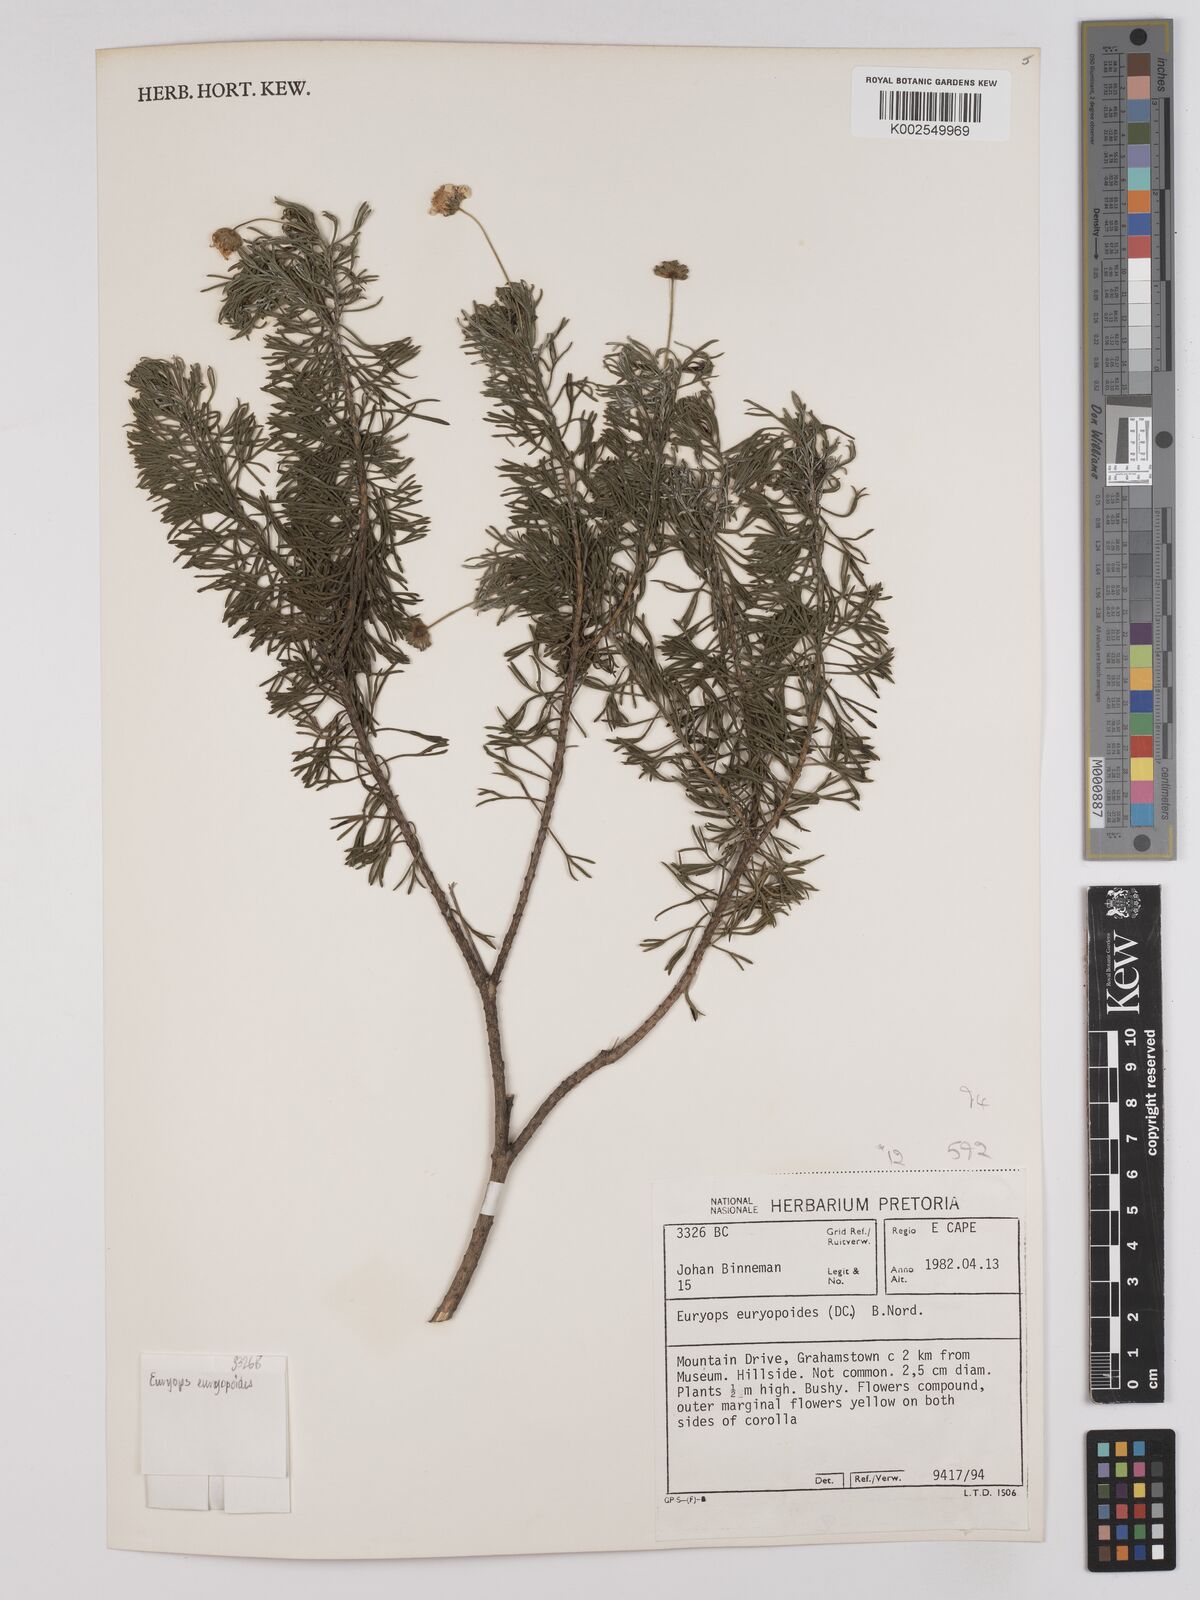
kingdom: Plantae
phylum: Tracheophyta
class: Magnoliopsida
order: Asterales
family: Asteraceae
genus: Euryops
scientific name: Euryops euryopoides
